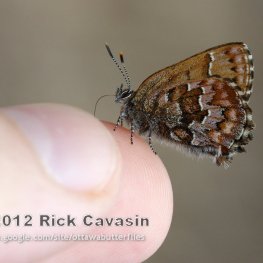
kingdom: Animalia
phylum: Arthropoda
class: Insecta
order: Lepidoptera
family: Lycaenidae
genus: Incisalia
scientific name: Incisalia niphon
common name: Eastern Pine Elfin
